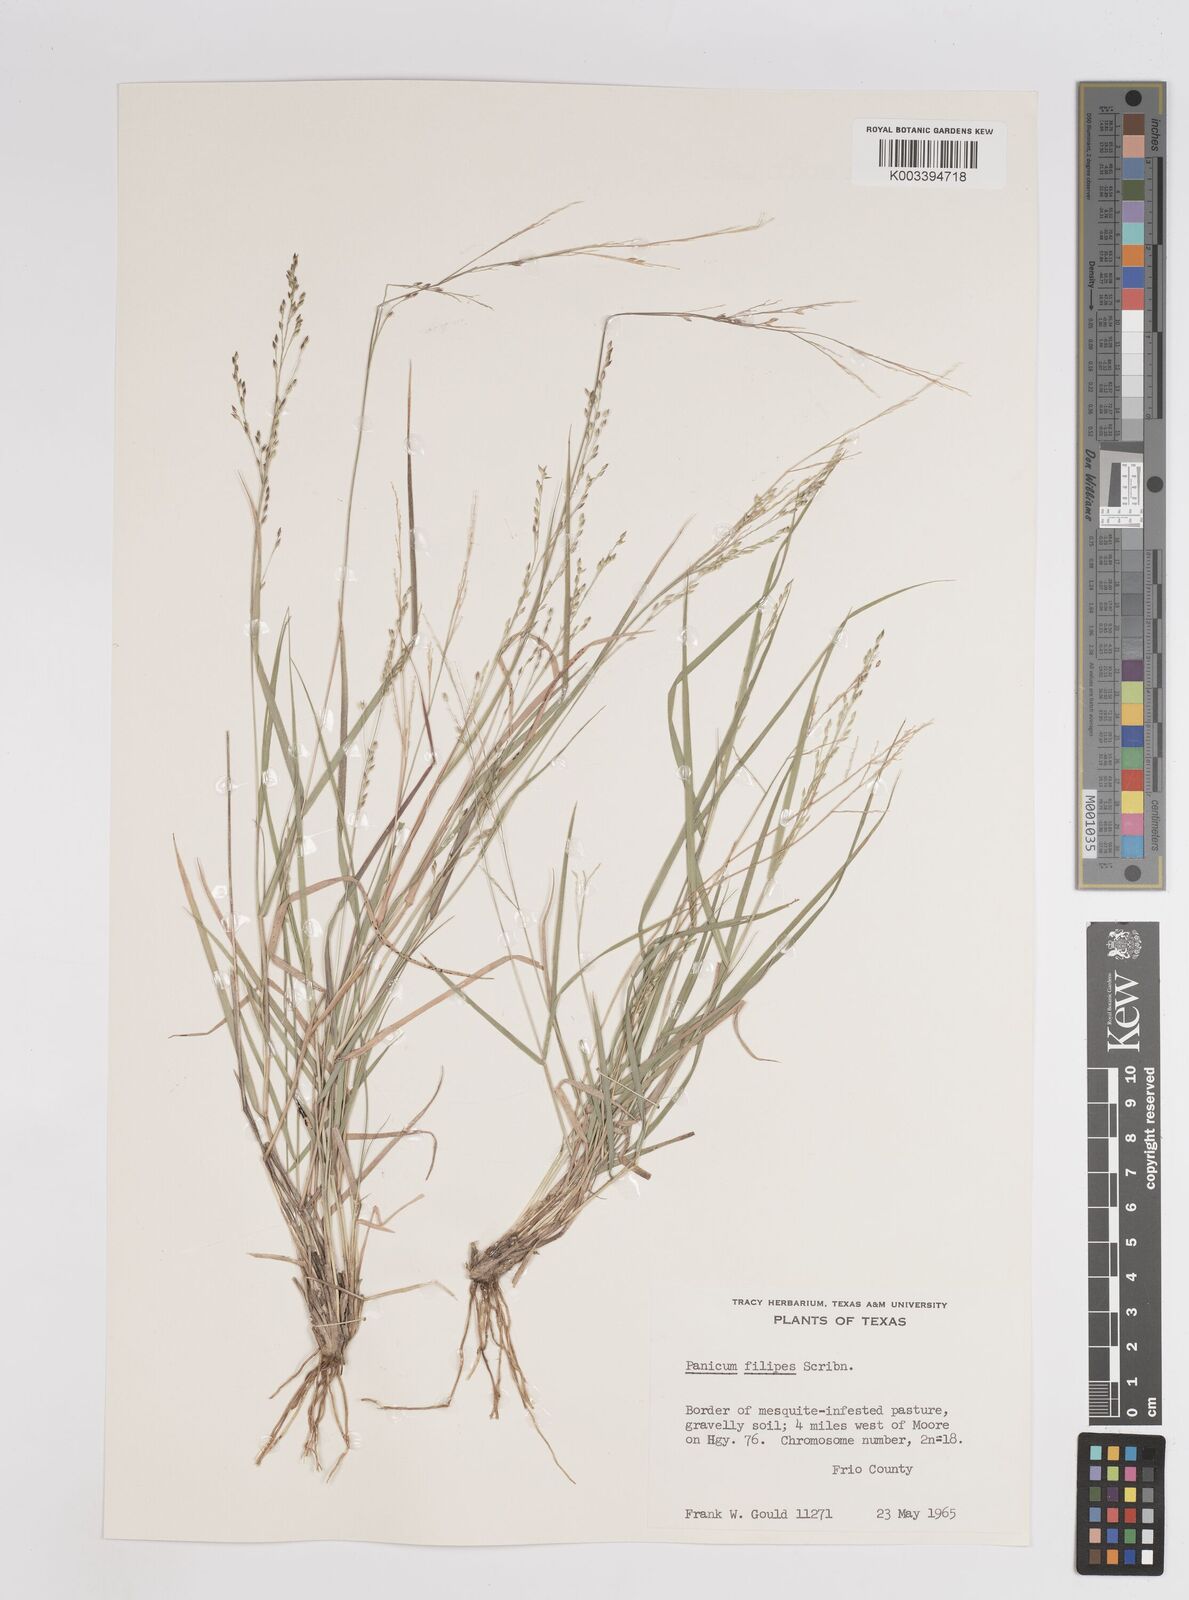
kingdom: Plantae
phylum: Tracheophyta
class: Liliopsida
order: Poales
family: Poaceae
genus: Panicum
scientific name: Panicum hallii
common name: Hall's witchgrass
